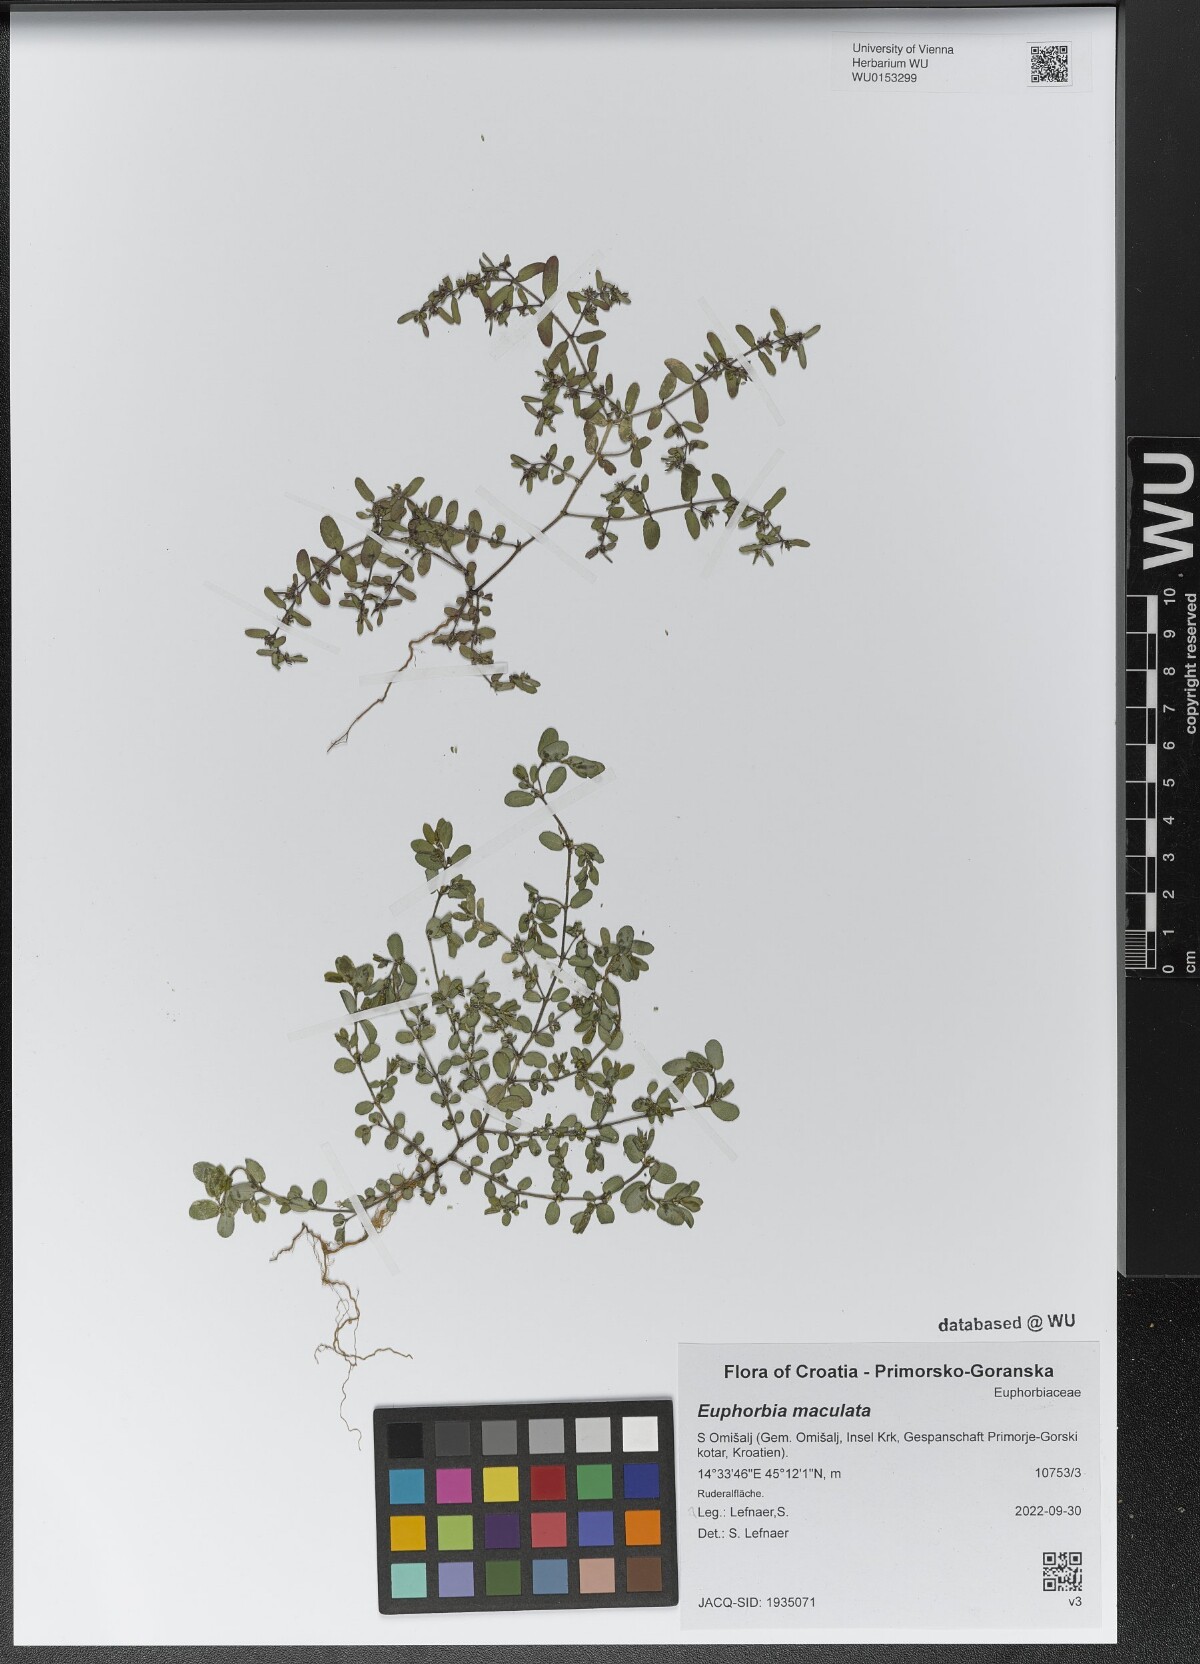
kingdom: Plantae
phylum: Tracheophyta
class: Magnoliopsida
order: Malpighiales
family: Euphorbiaceae
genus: Euphorbia
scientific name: Euphorbia maculata
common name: Spotted spurge
